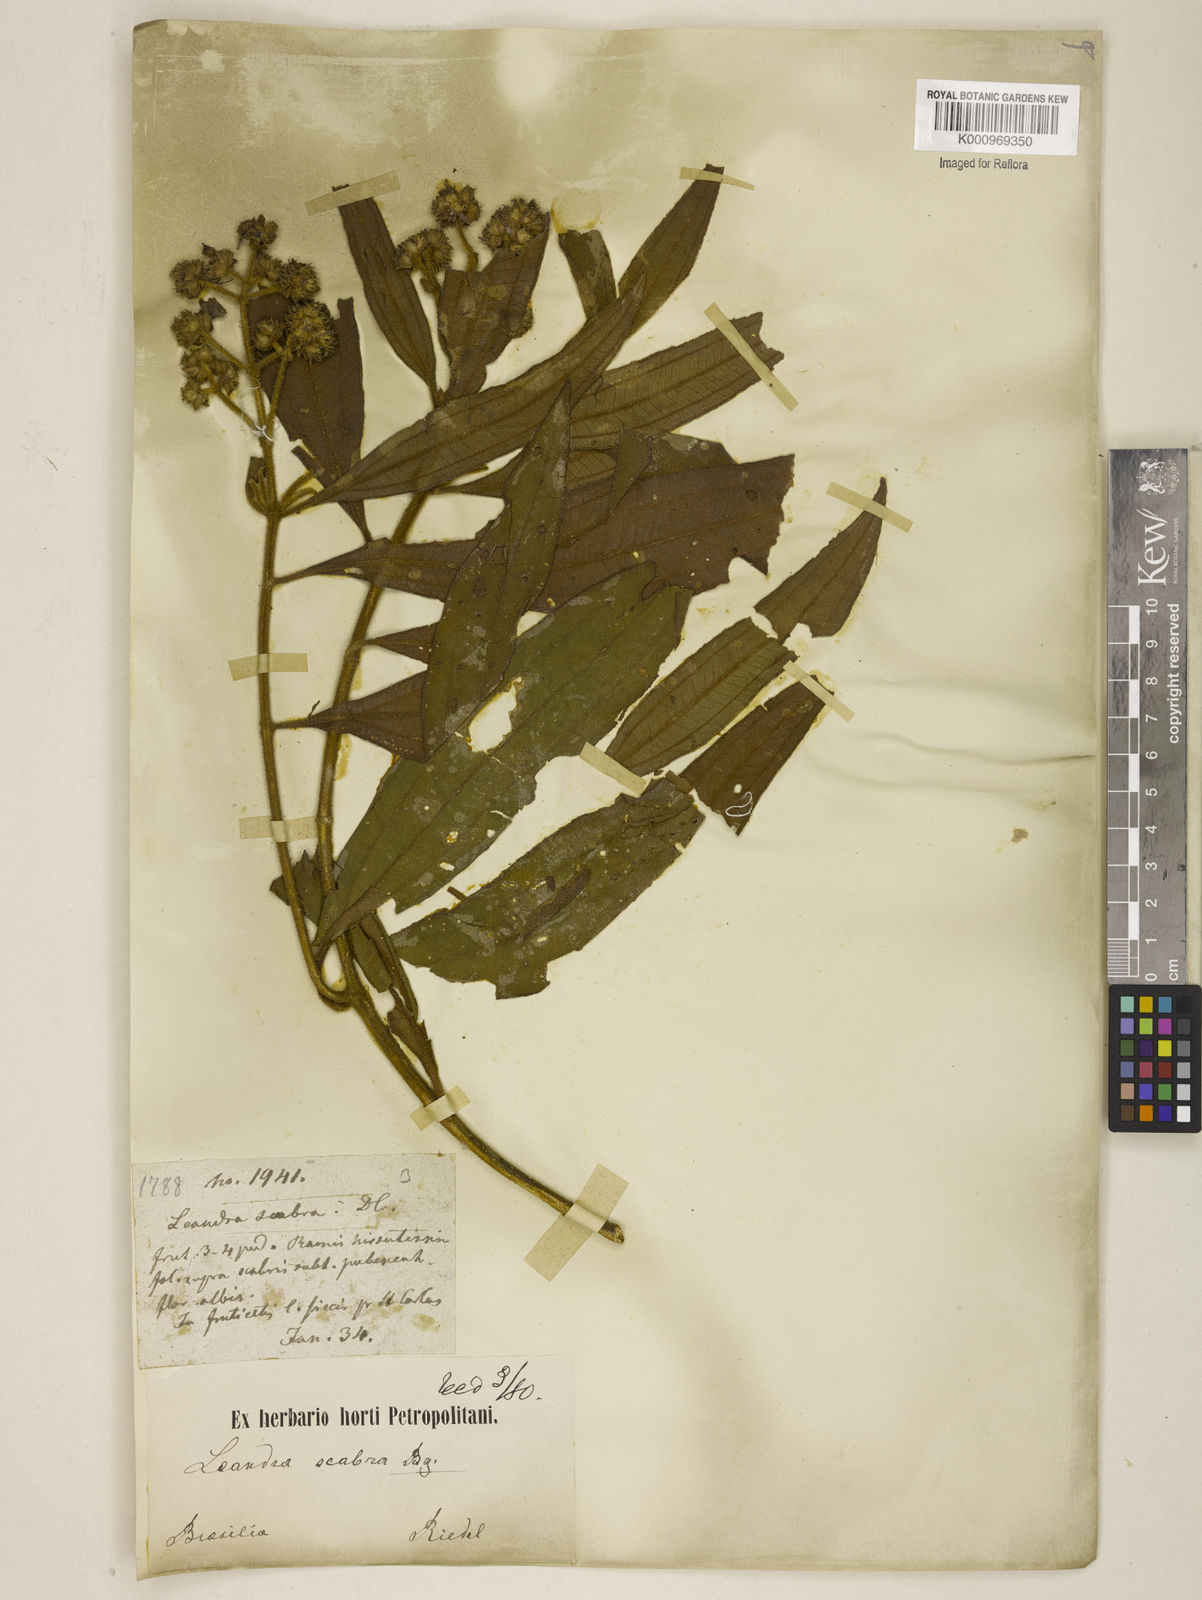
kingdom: Plantae
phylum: Tracheophyta
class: Magnoliopsida
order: Myrtales
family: Melastomataceae
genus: Miconia
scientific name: Miconia melastomoides
